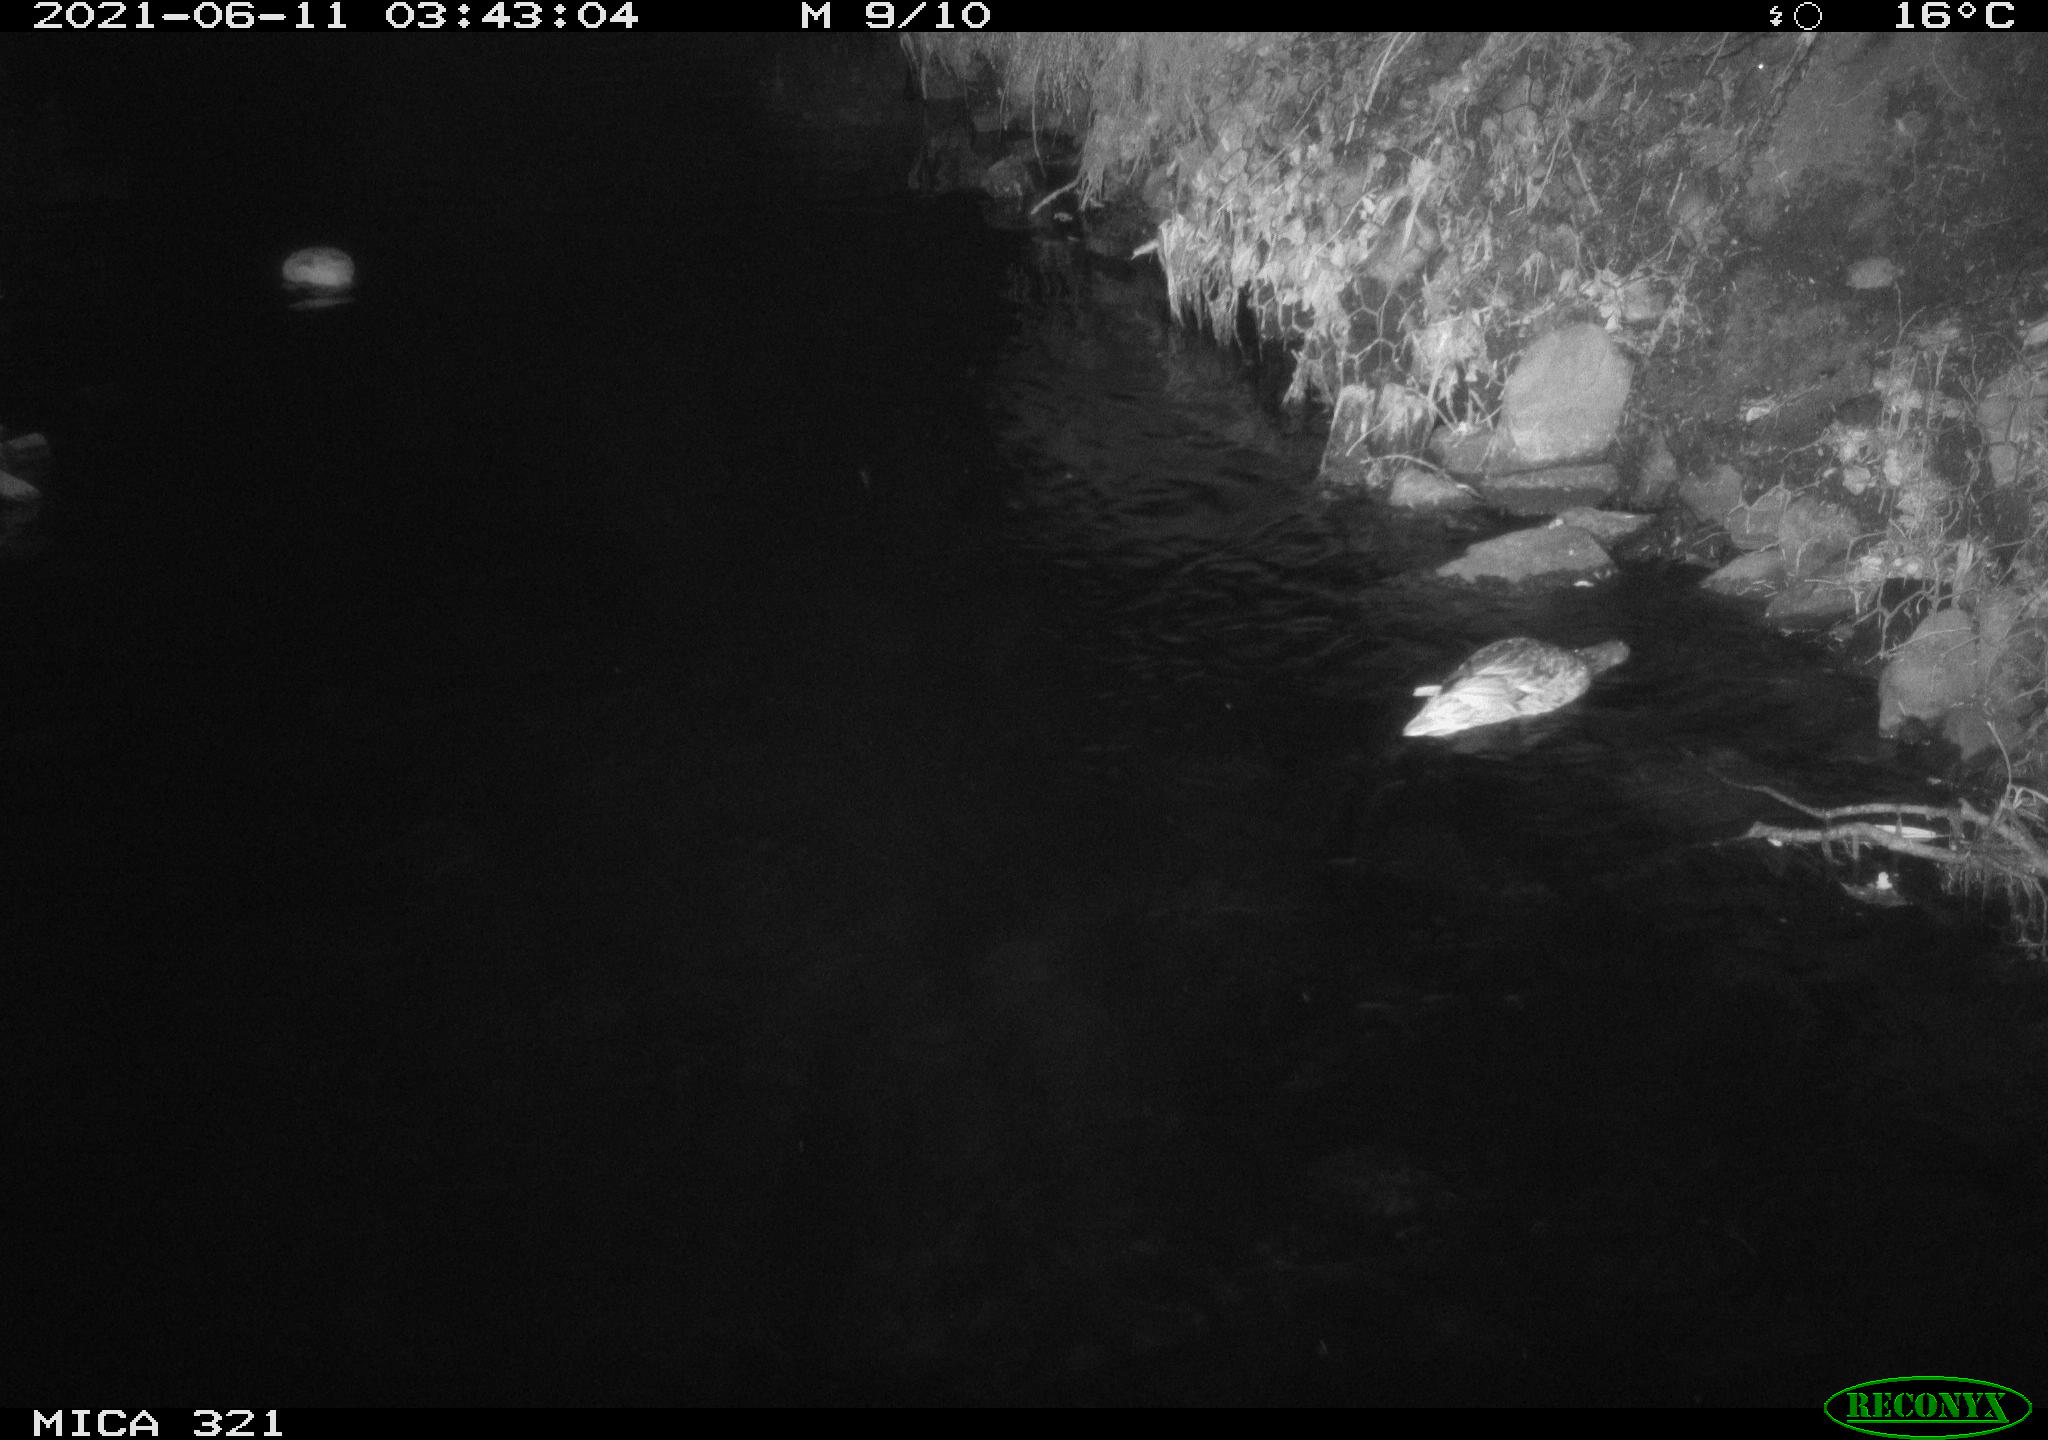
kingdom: Animalia
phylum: Chordata
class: Aves
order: Anseriformes
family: Anatidae
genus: Anas
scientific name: Anas platyrhynchos
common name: Mallard
